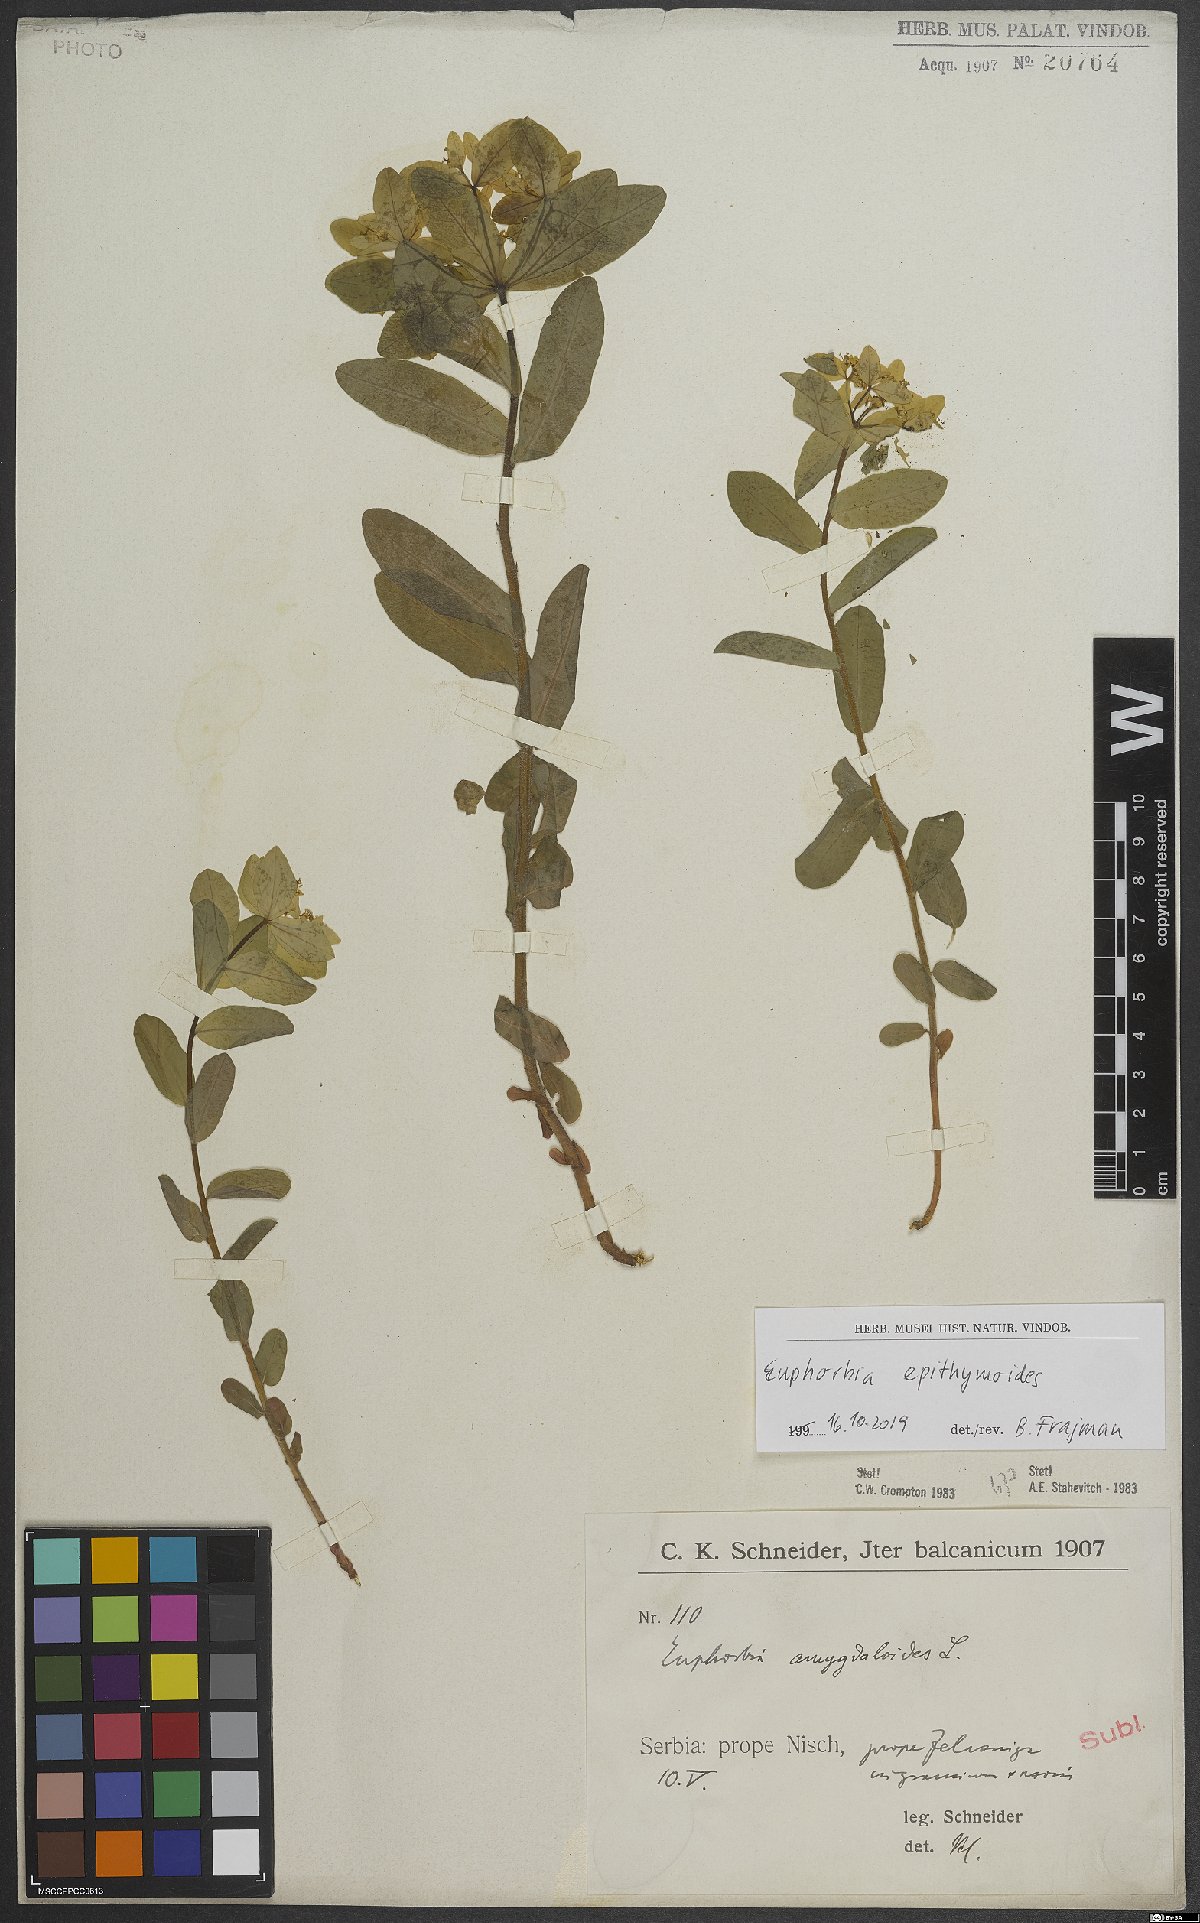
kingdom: Plantae
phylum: Tracheophyta
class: Magnoliopsida
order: Malpighiales
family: Euphorbiaceae
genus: Euphorbia
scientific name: Euphorbia epithymoides
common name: Cushion spurge
